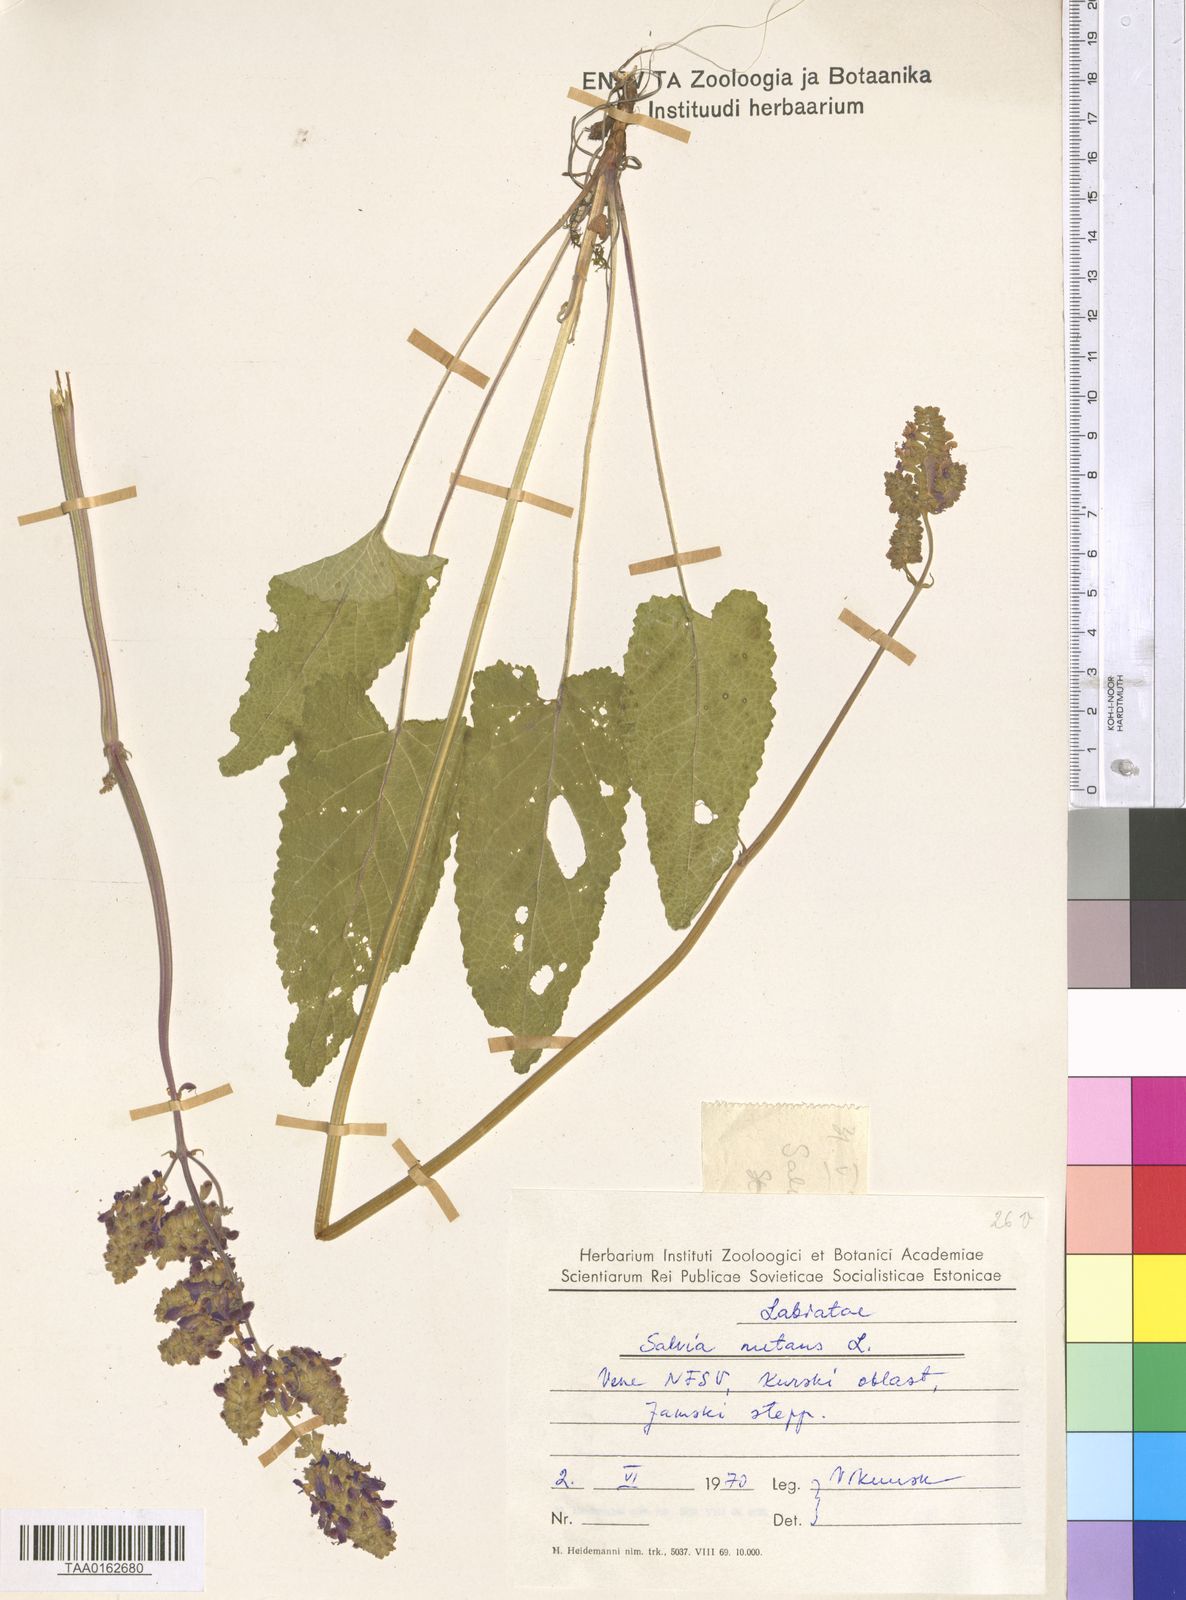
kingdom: Plantae
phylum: Tracheophyta
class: Magnoliopsida
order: Lamiales
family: Lamiaceae
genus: Salvia
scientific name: Salvia nutans
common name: Nodding sage
